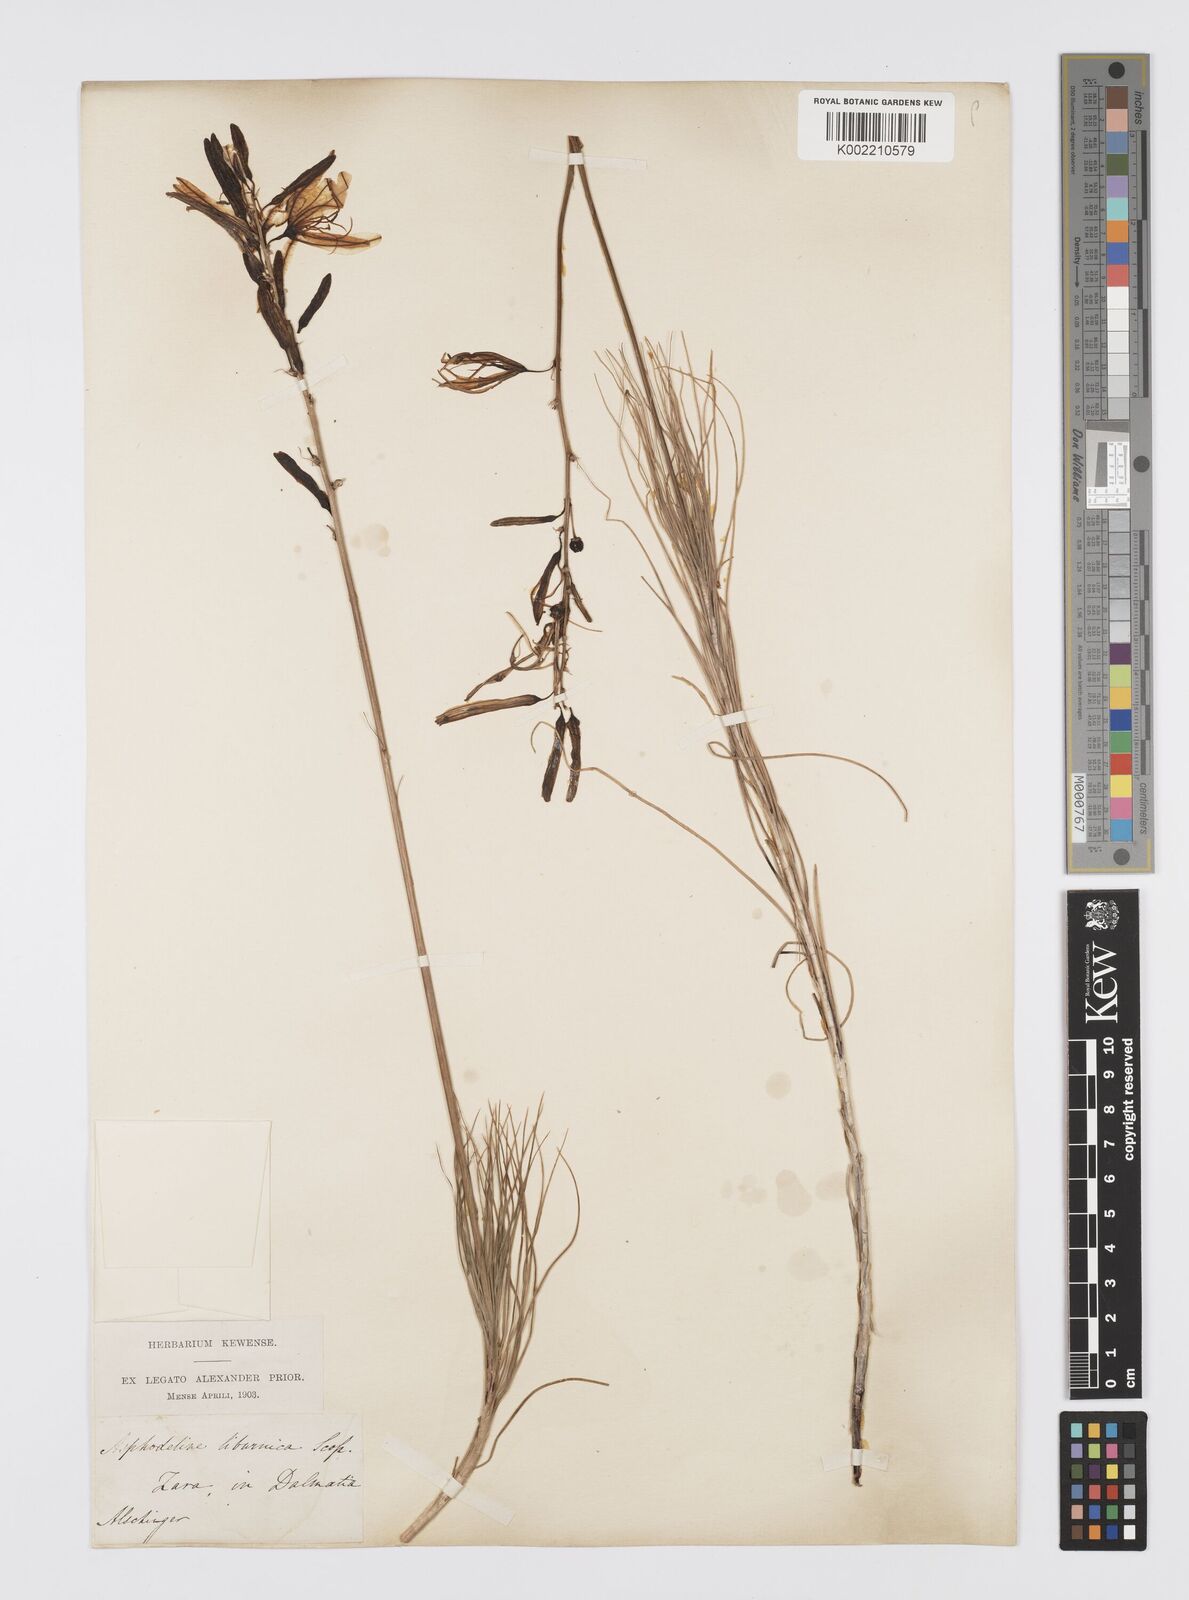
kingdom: Plantae
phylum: Tracheophyta
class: Liliopsida
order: Asparagales
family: Asphodelaceae
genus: Asphodeline
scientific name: Asphodeline liburnica
